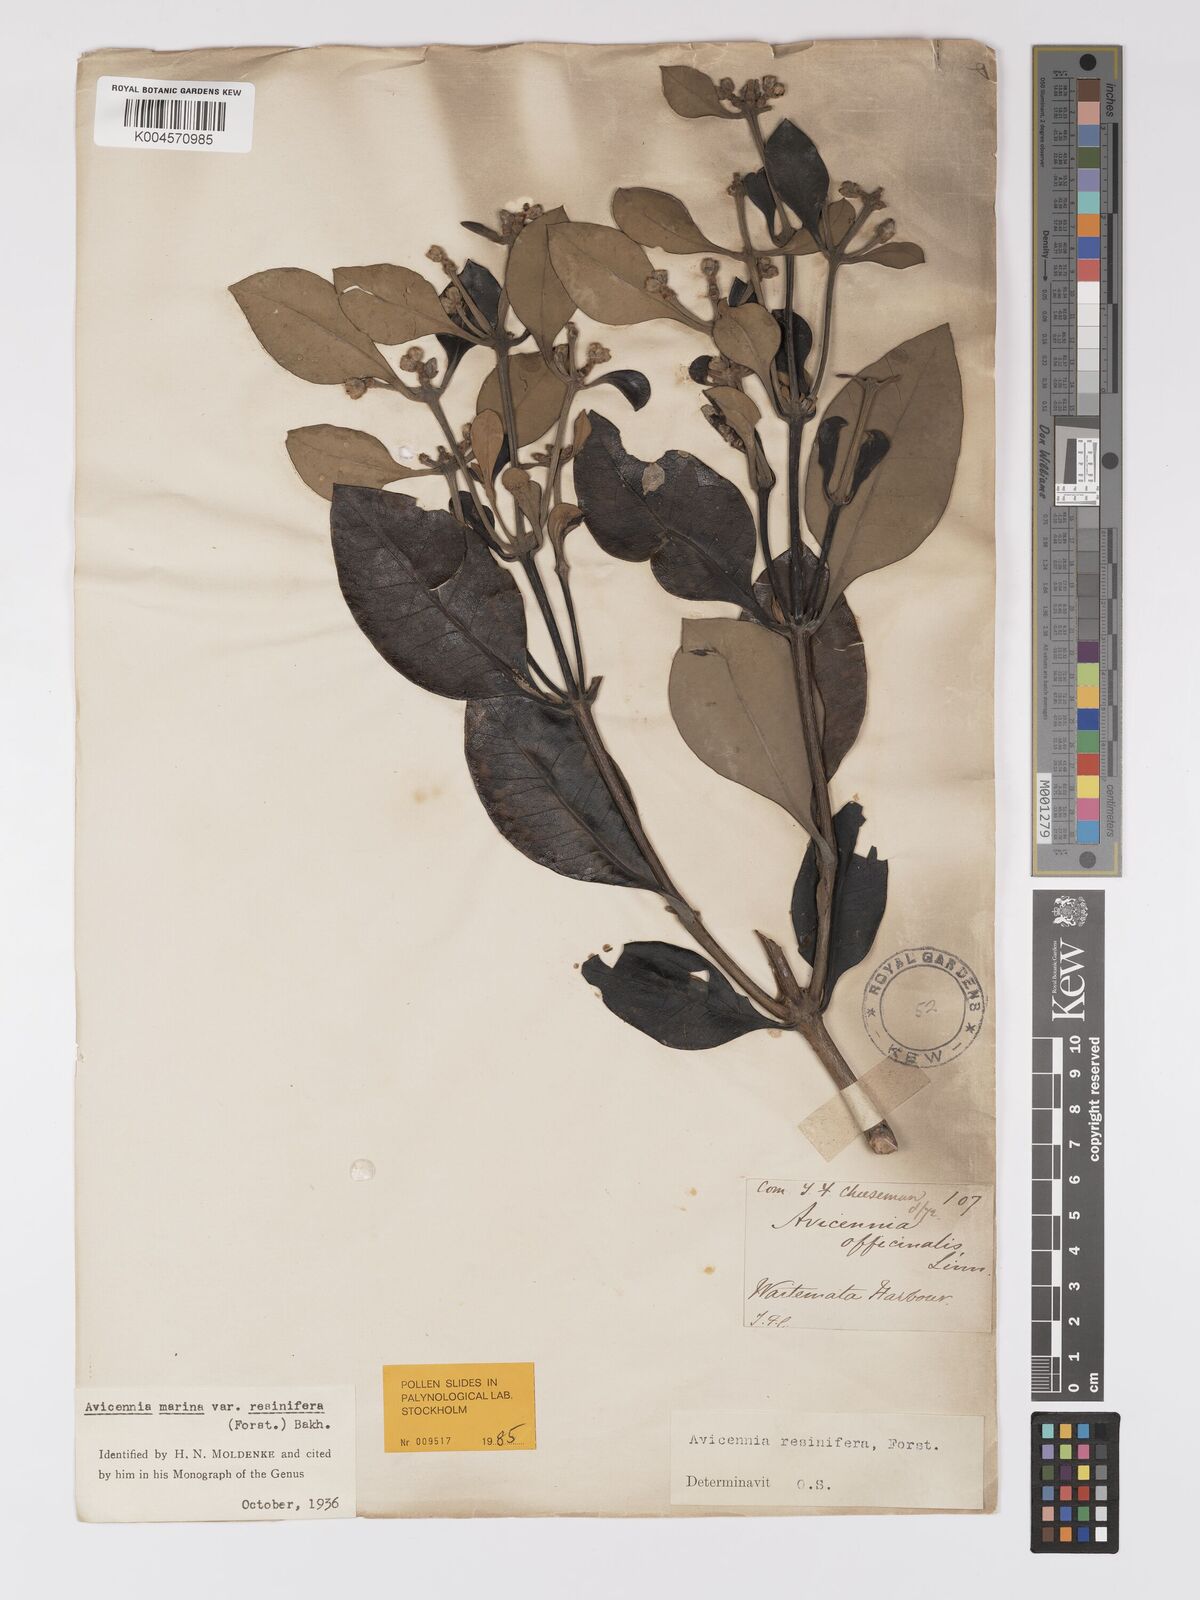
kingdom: Plantae
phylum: Tracheophyta
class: Magnoliopsida
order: Lamiales
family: Acanthaceae
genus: Avicennia
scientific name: Avicennia marina
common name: Gray mangrove
